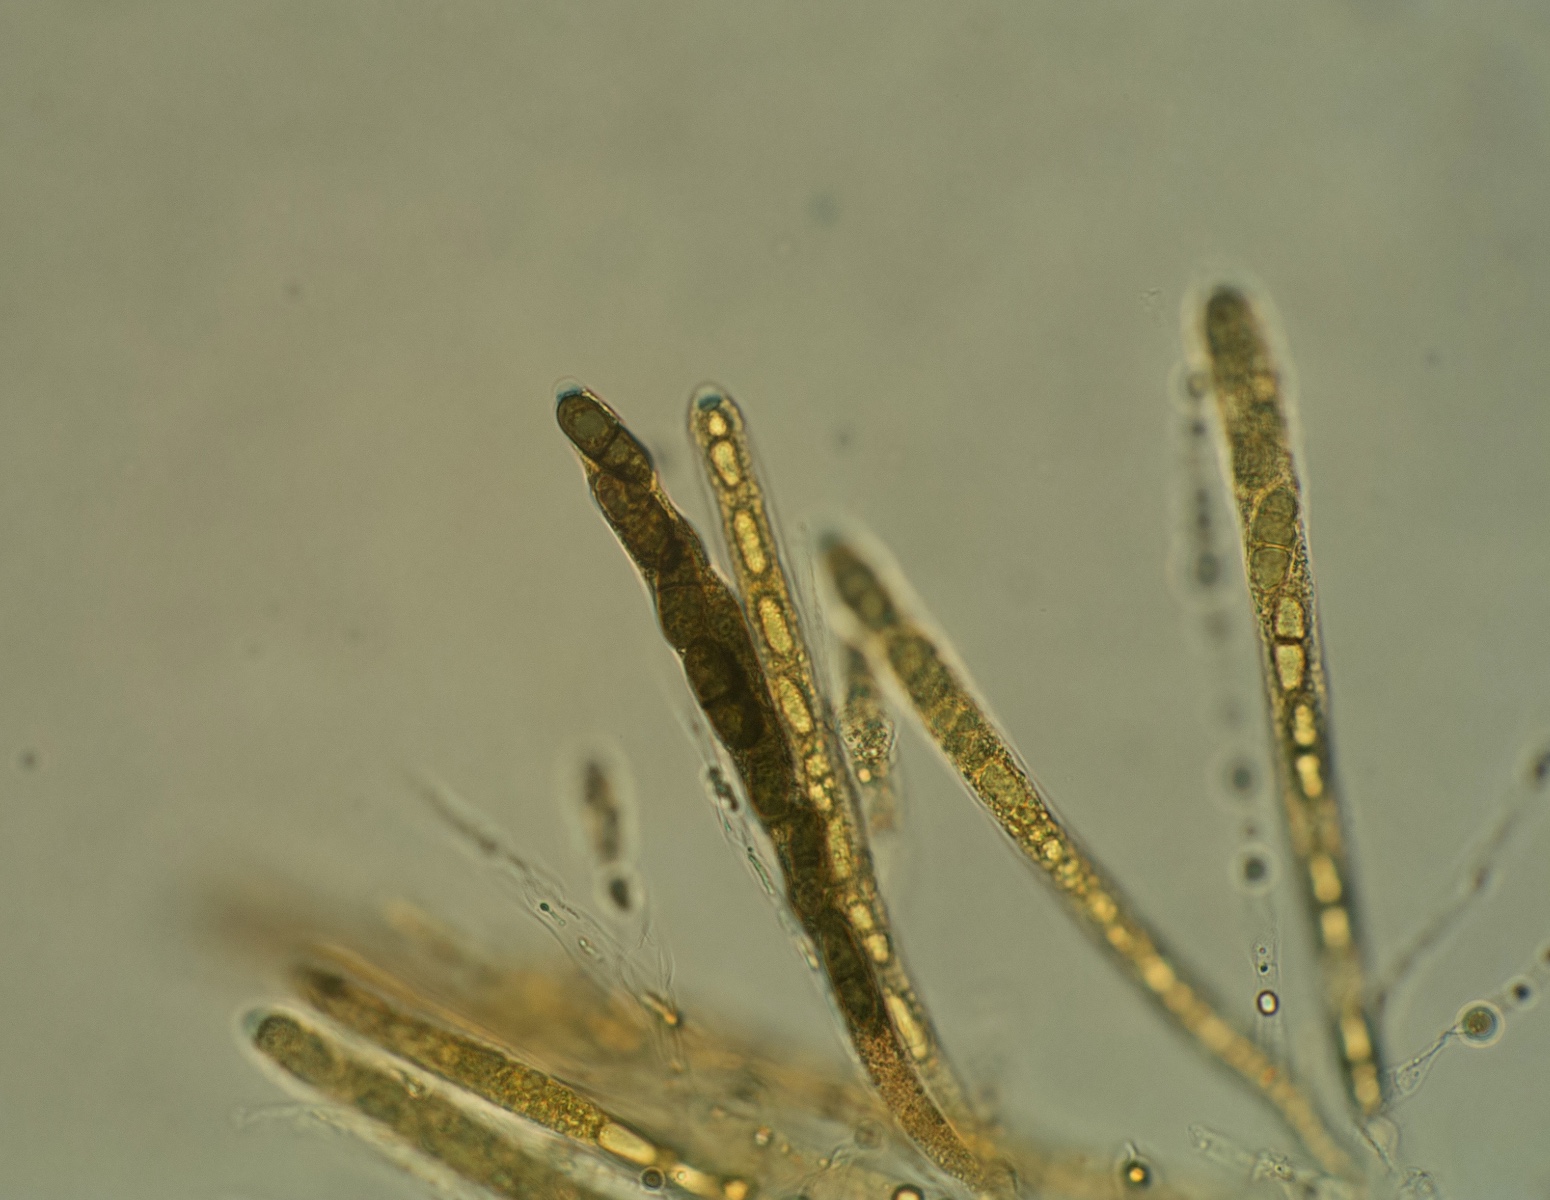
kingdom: Fungi
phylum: Ascomycota
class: Sordariomycetes
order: Amphisphaeriales
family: Amphisphaeriaceae
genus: Amphisphaeria
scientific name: Amphisphaeria multipunctata
